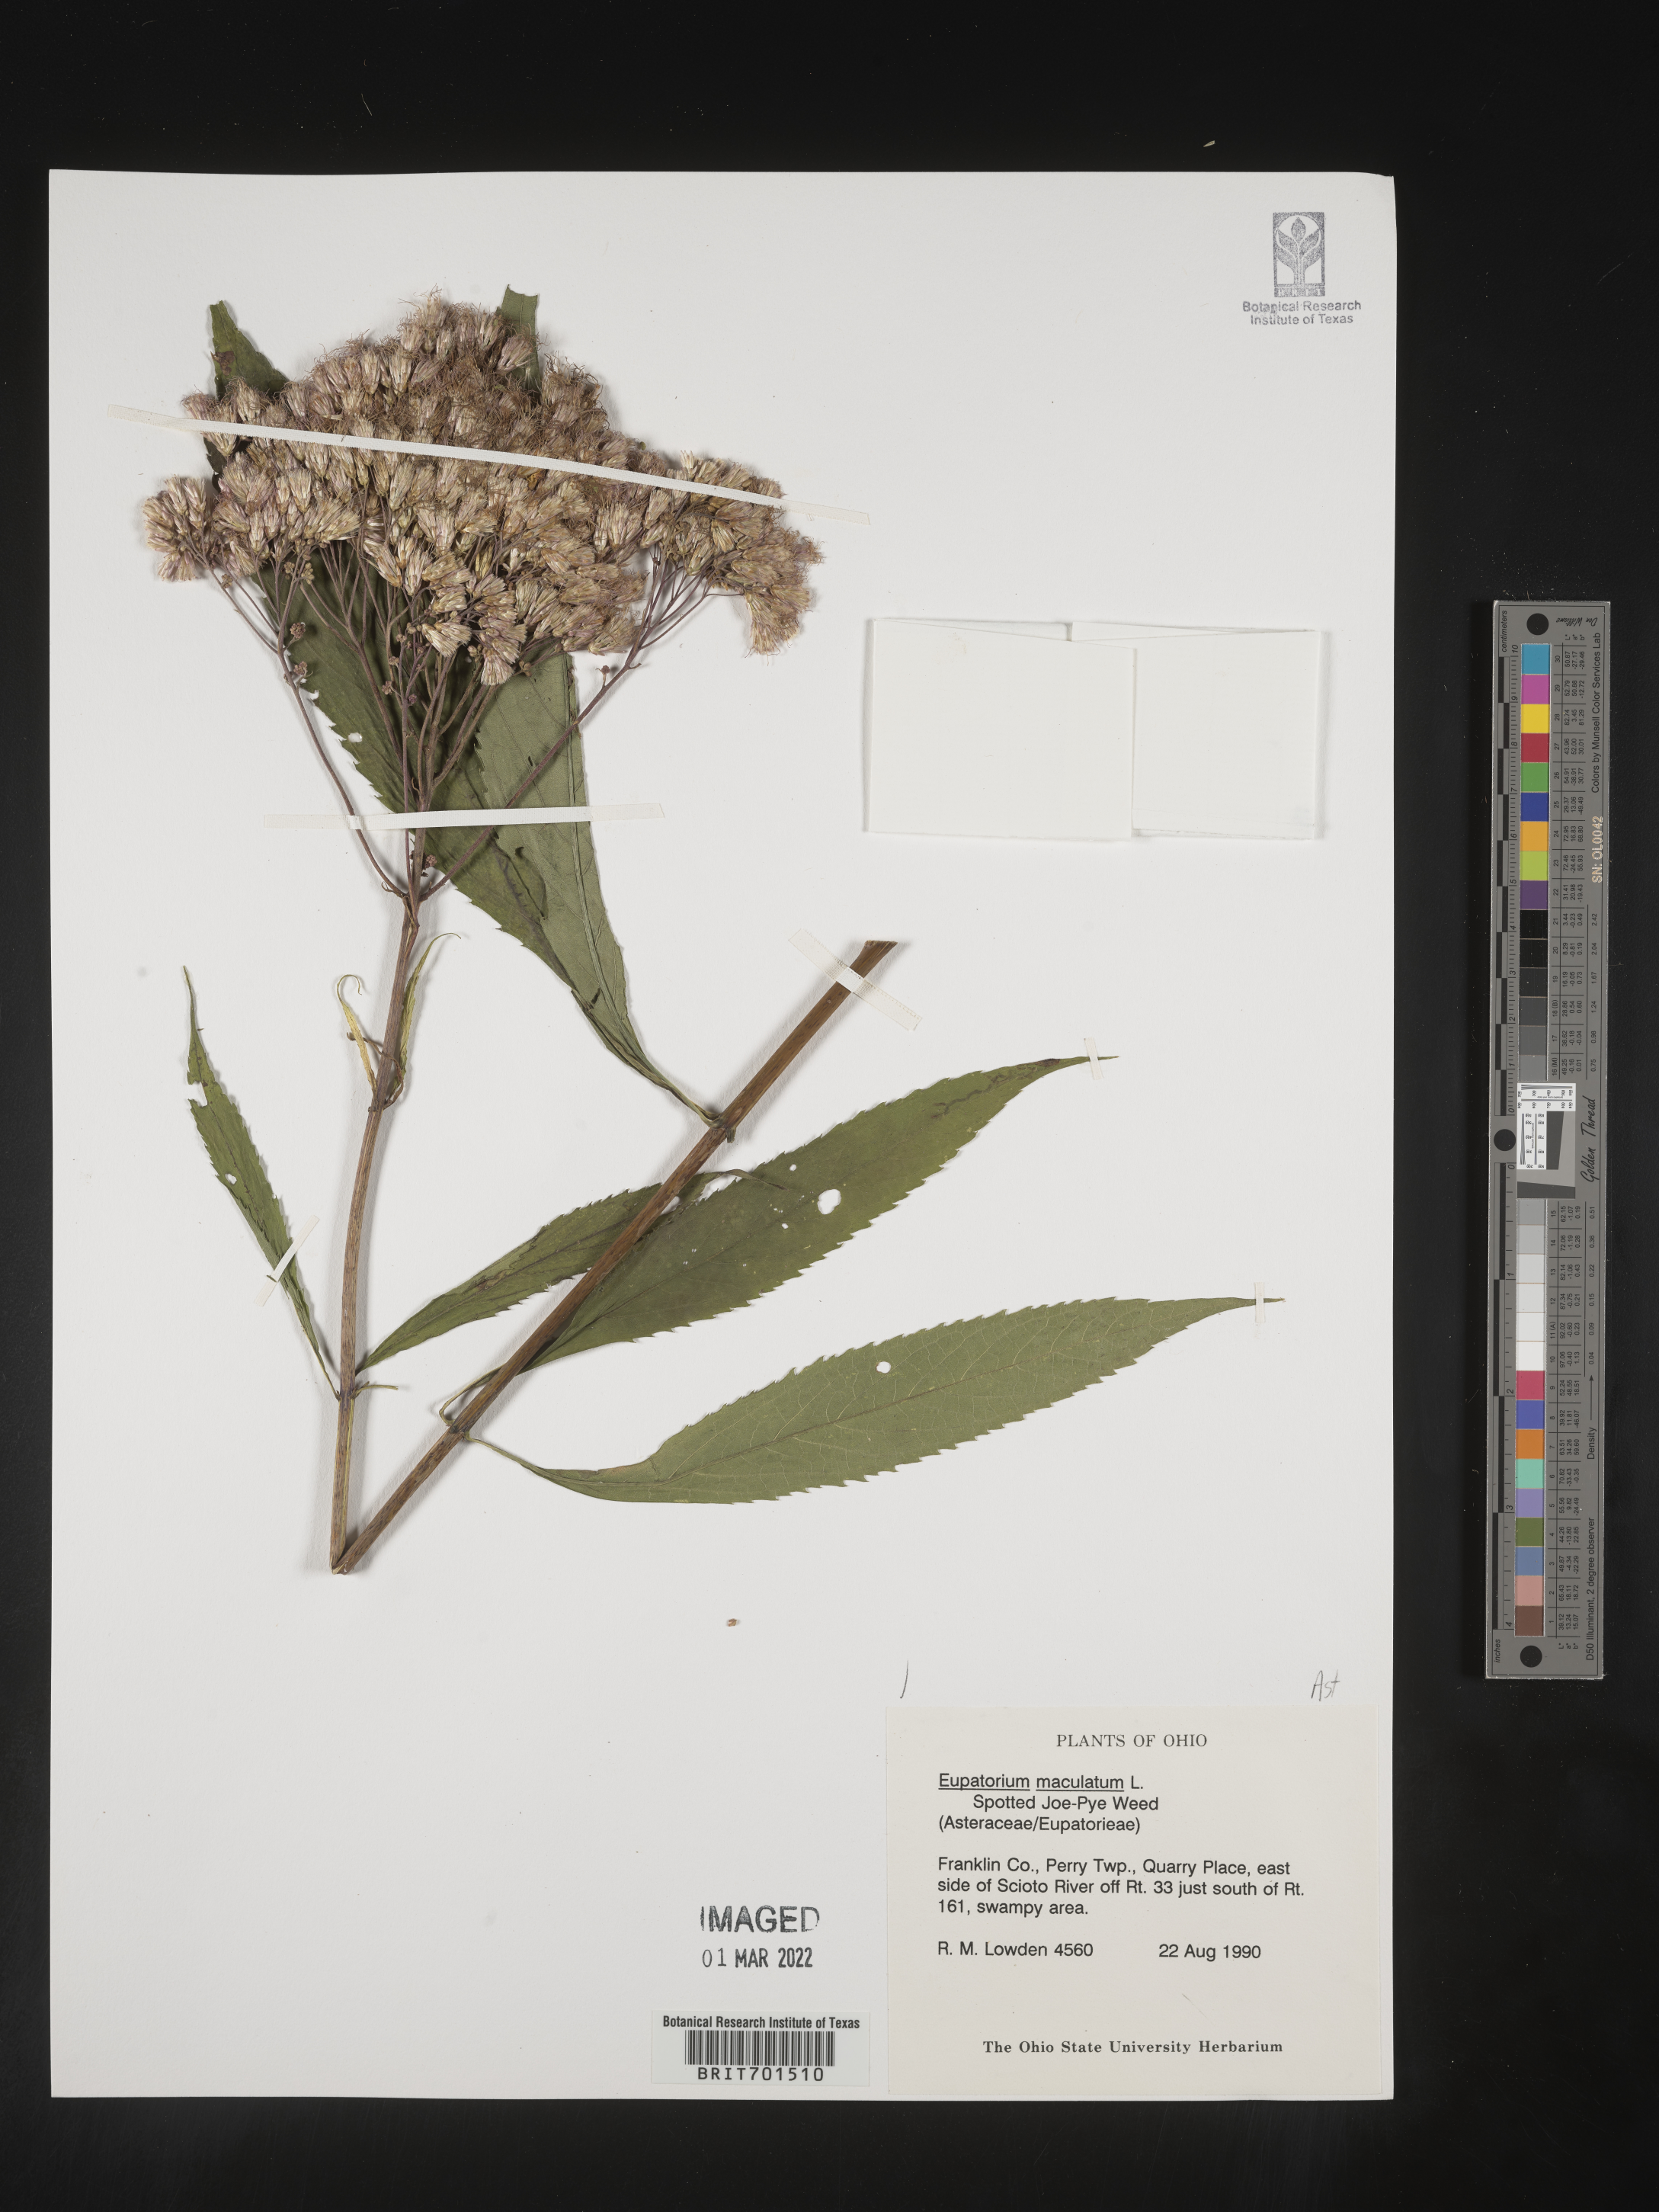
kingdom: Plantae
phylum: Tracheophyta
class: Magnoliopsida
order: Asterales
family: Asteraceae
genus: Eutrochium
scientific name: Eutrochium maculatum
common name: Spotted joe pye weed
